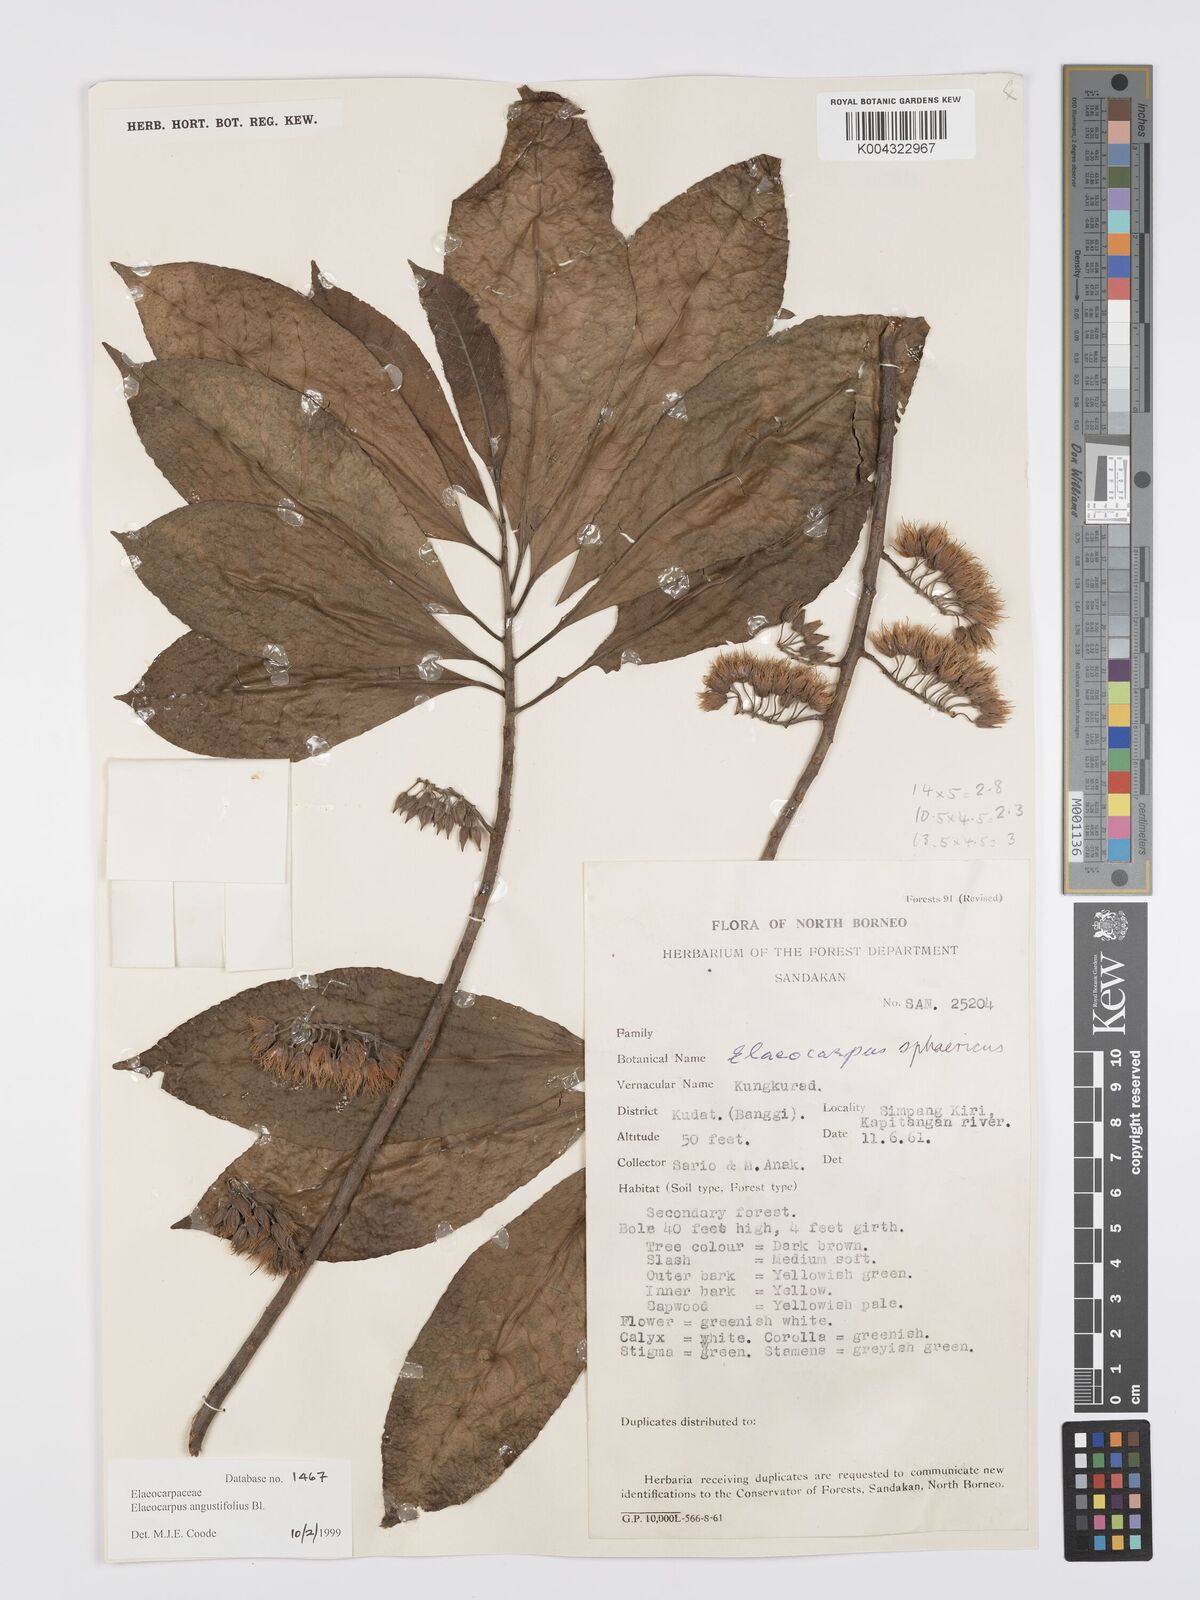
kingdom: Plantae
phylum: Tracheophyta
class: Magnoliopsida
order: Oxalidales
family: Elaeocarpaceae
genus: Elaeocarpus
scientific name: Elaeocarpus
